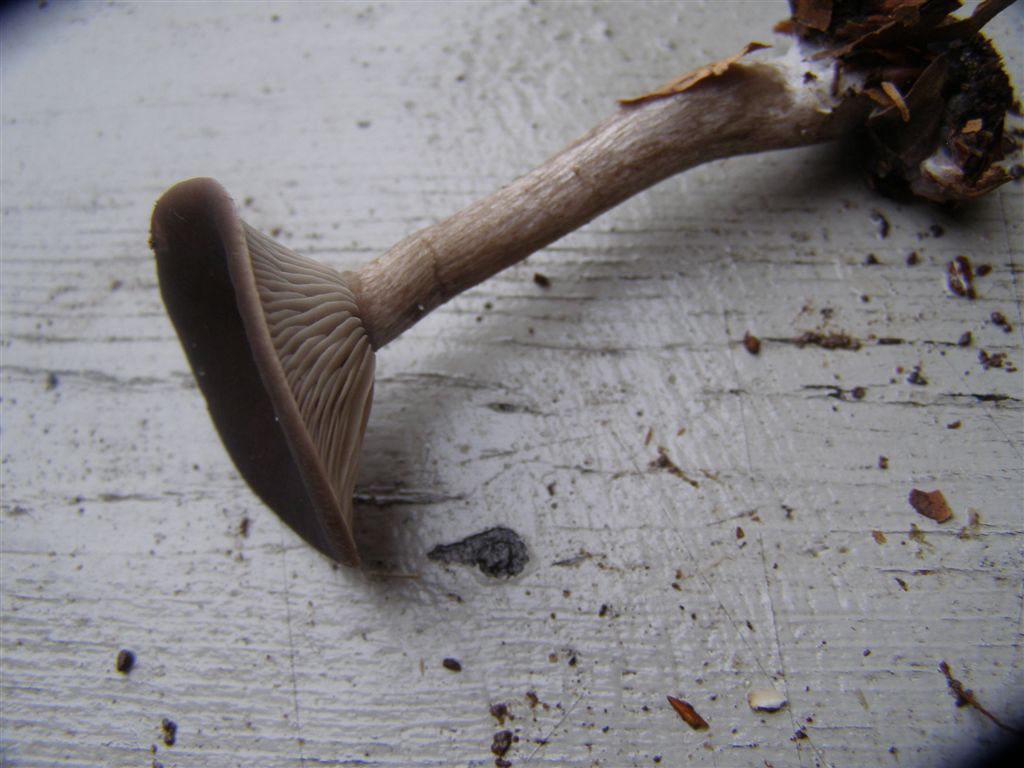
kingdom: Fungi
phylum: Basidiomycota
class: Agaricomycetes
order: Agaricales
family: Pseudoclitocybaceae
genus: Pseudoclitocybe
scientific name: Pseudoclitocybe cyathiformis
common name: almindelig bægertragthat
